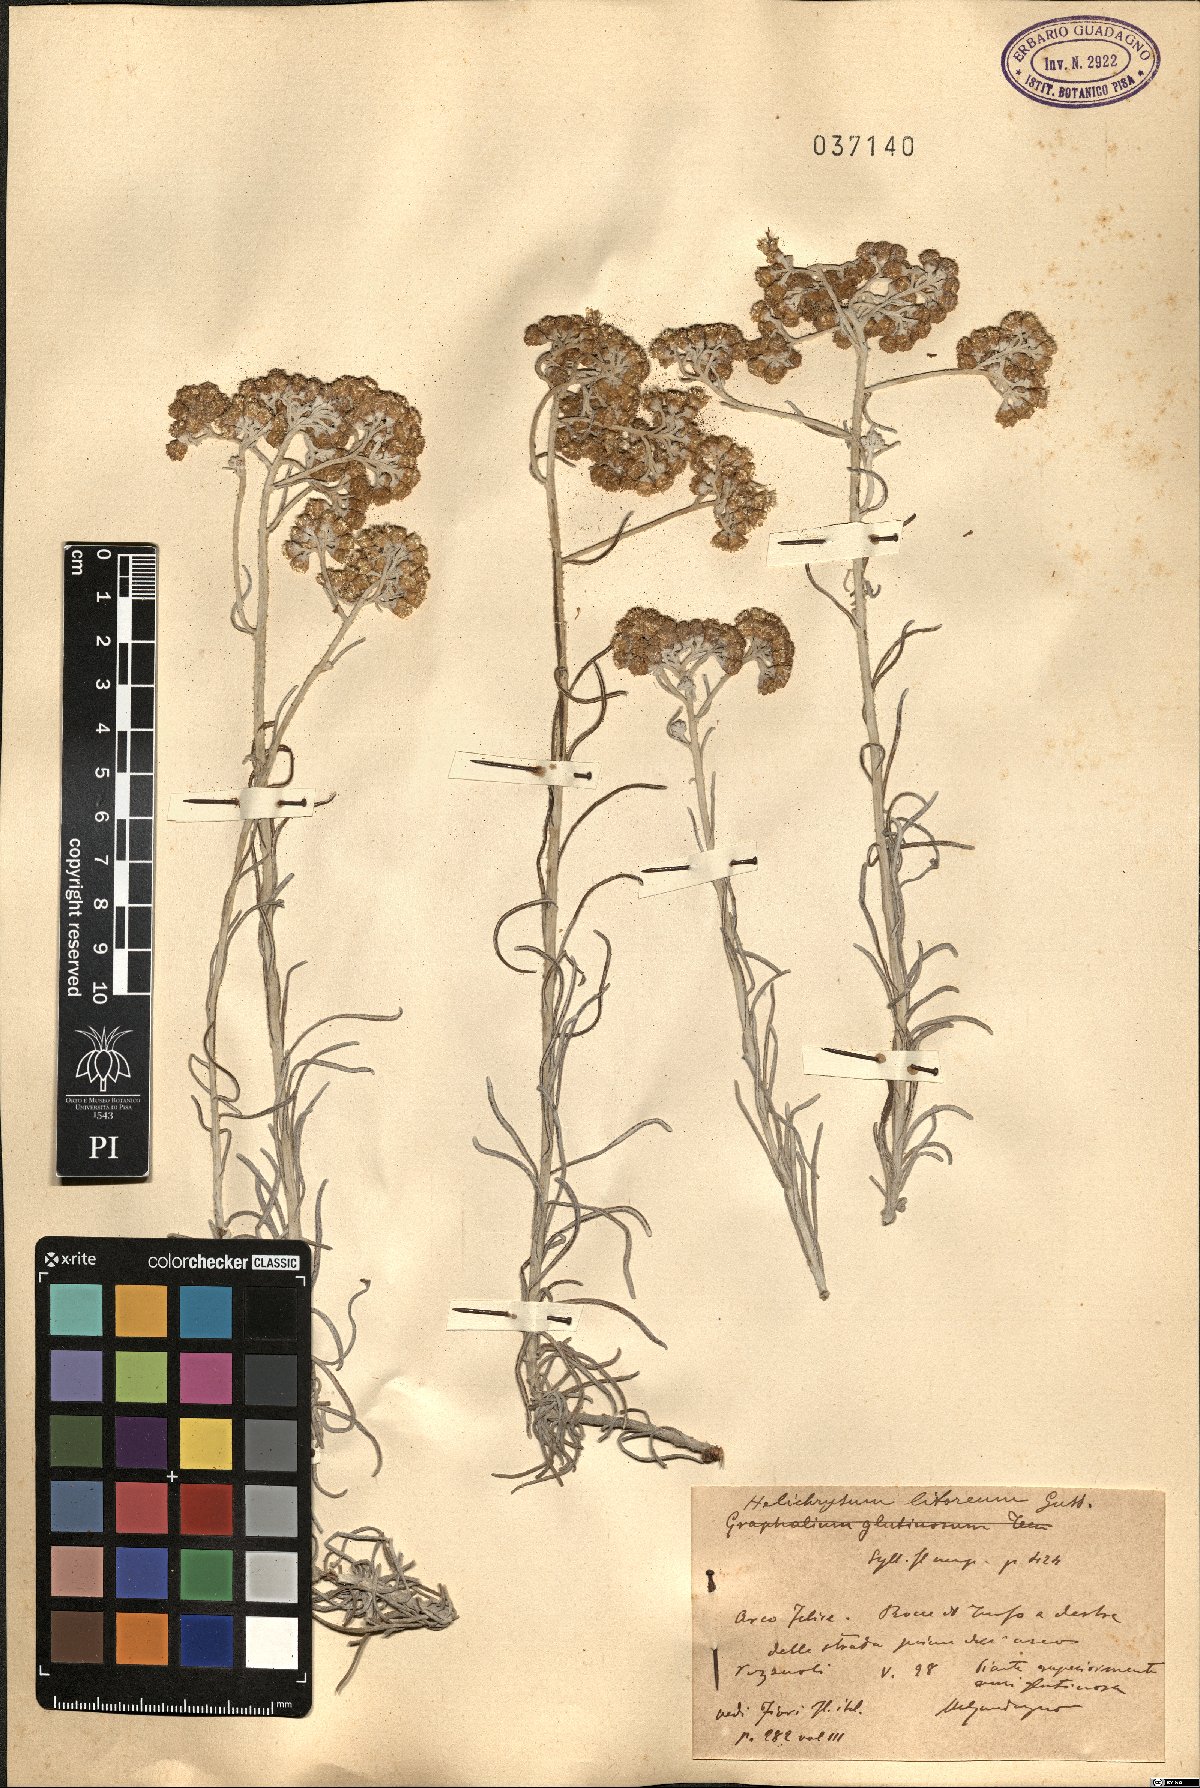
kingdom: Plantae
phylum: Tracheophyta
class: Magnoliopsida
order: Asterales
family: Asteraceae
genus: Helichrysum
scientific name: Helichrysum litoreum
